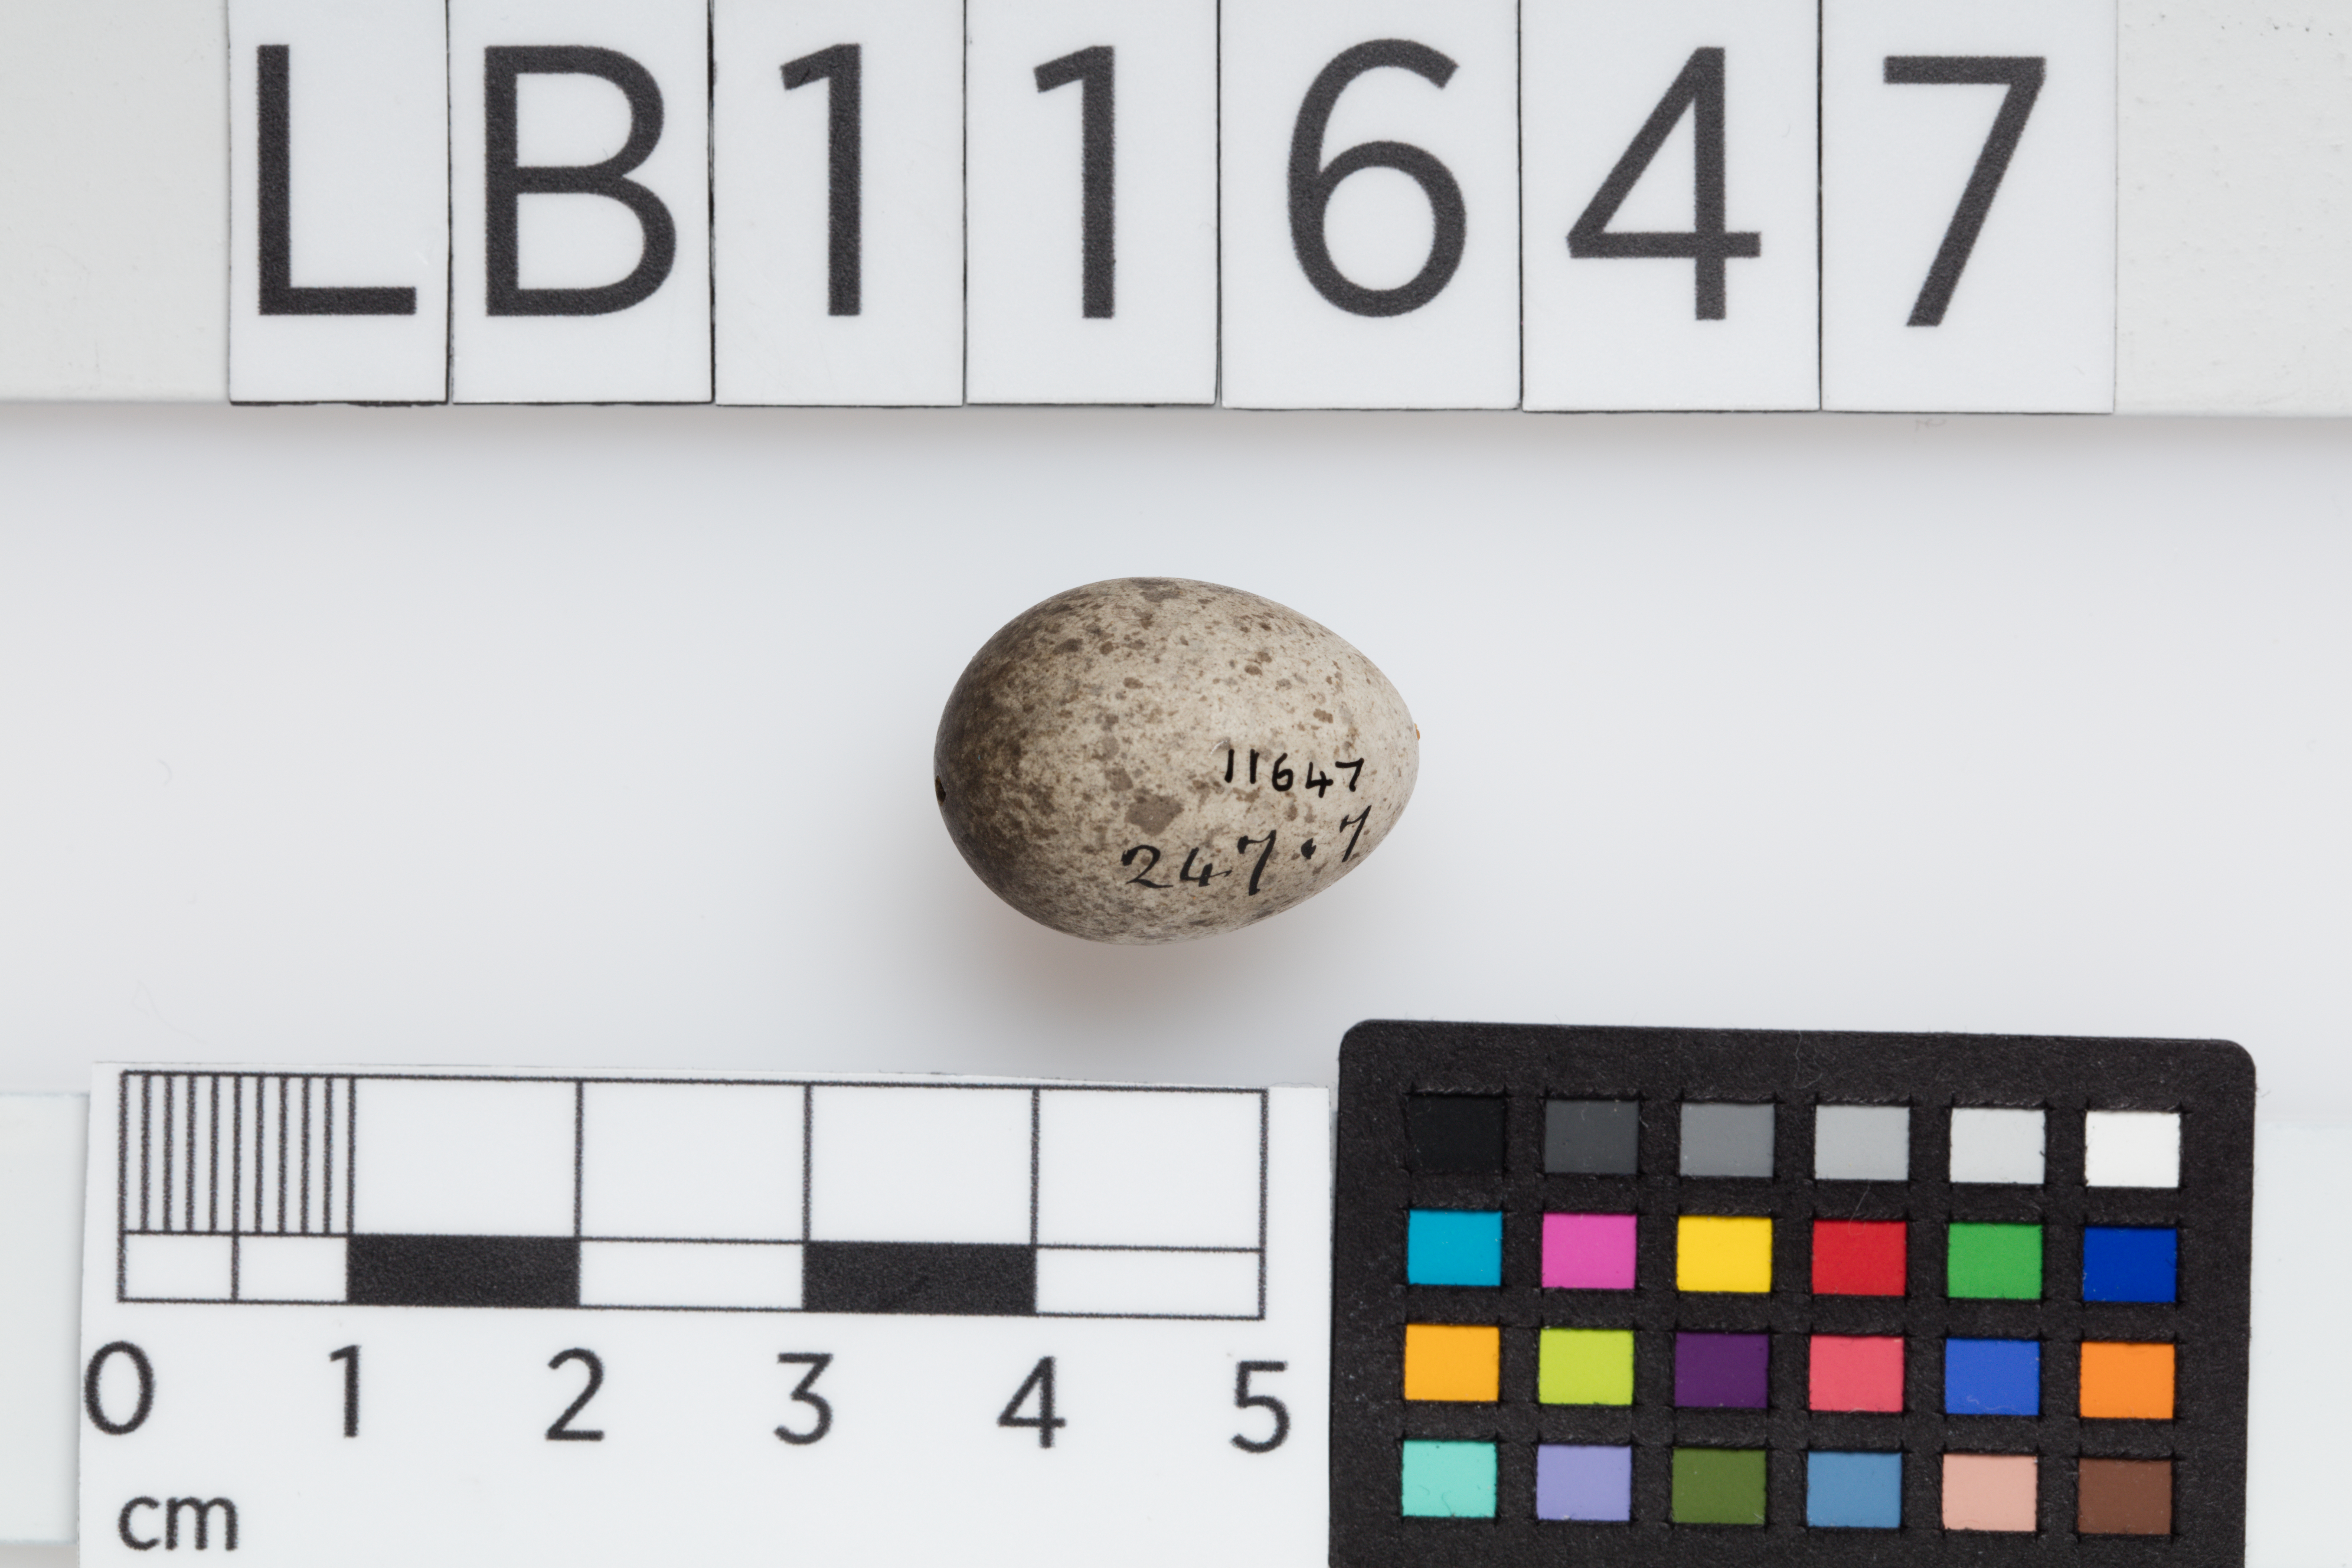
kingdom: Animalia
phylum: Chordata
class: Aves
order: Passeriformes
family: Passeridae
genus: Passer
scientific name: Passer domesticus
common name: House sparrow
